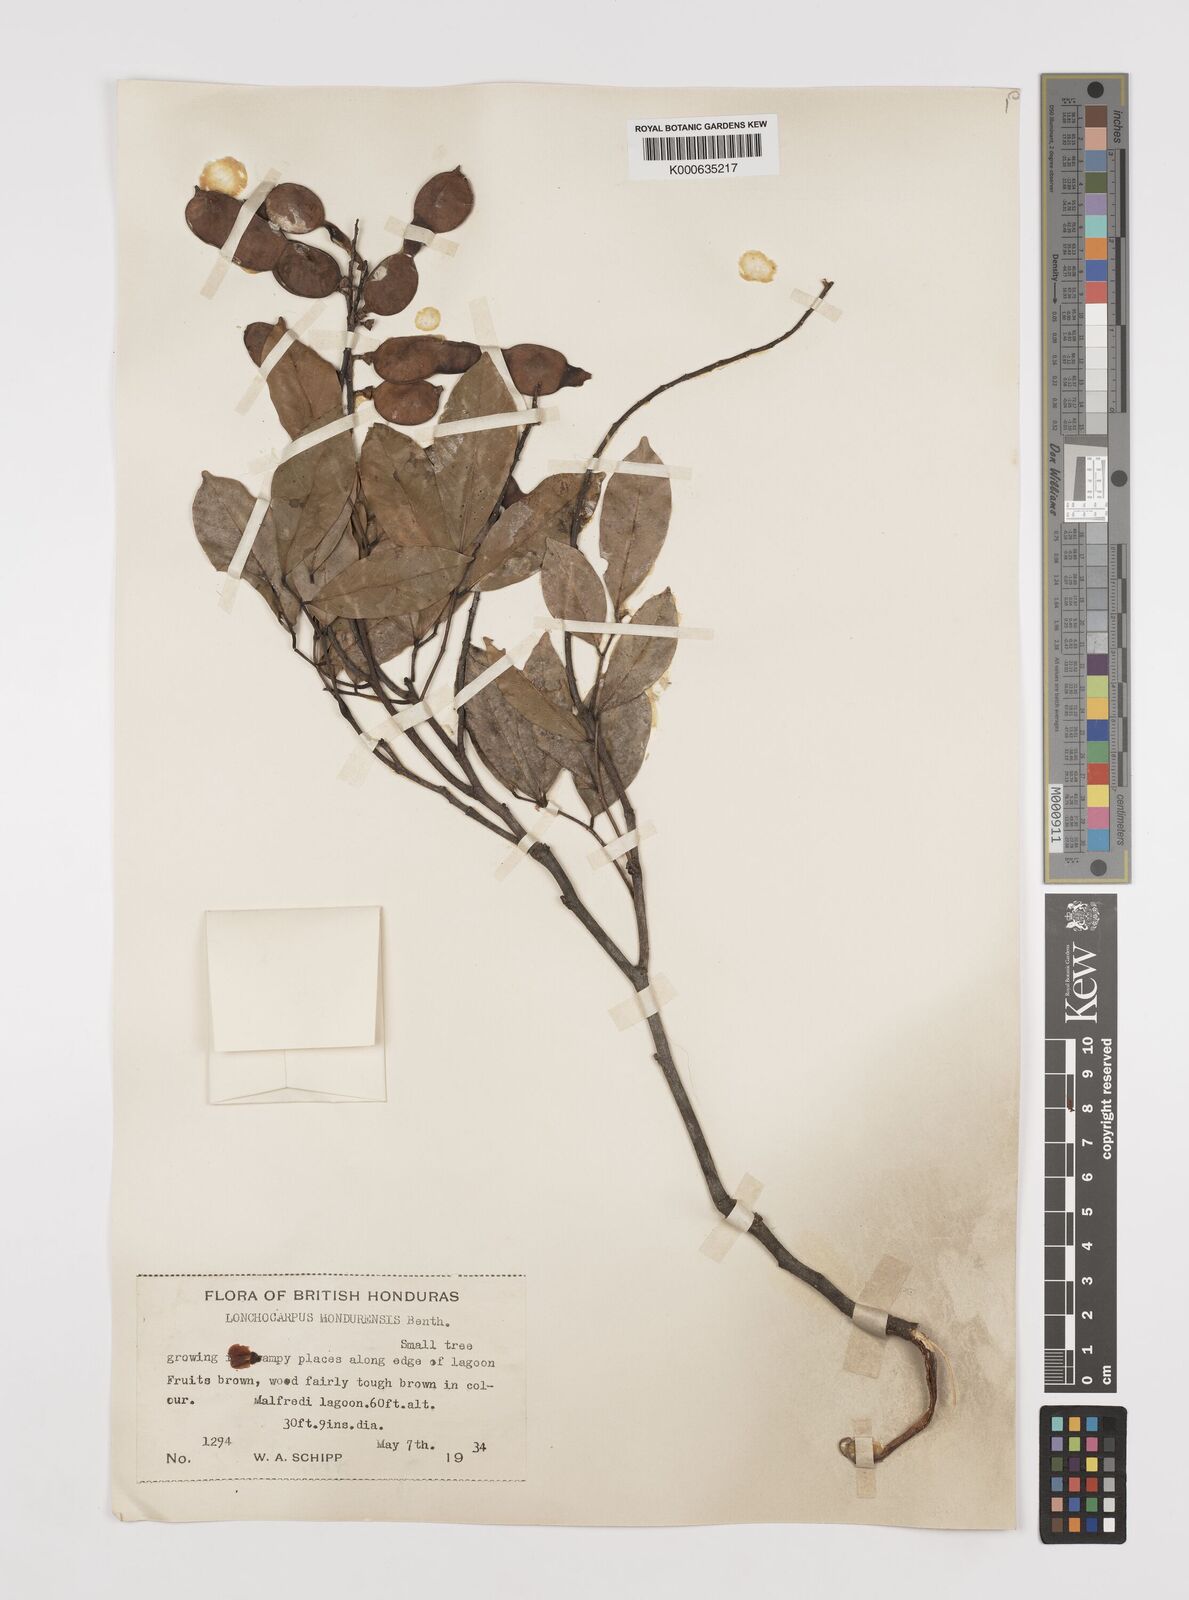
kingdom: Plantae
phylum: Tracheophyta
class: Magnoliopsida
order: Fabales
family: Fabaceae
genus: Lonchocarpus
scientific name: Lonchocarpus hondurensis
